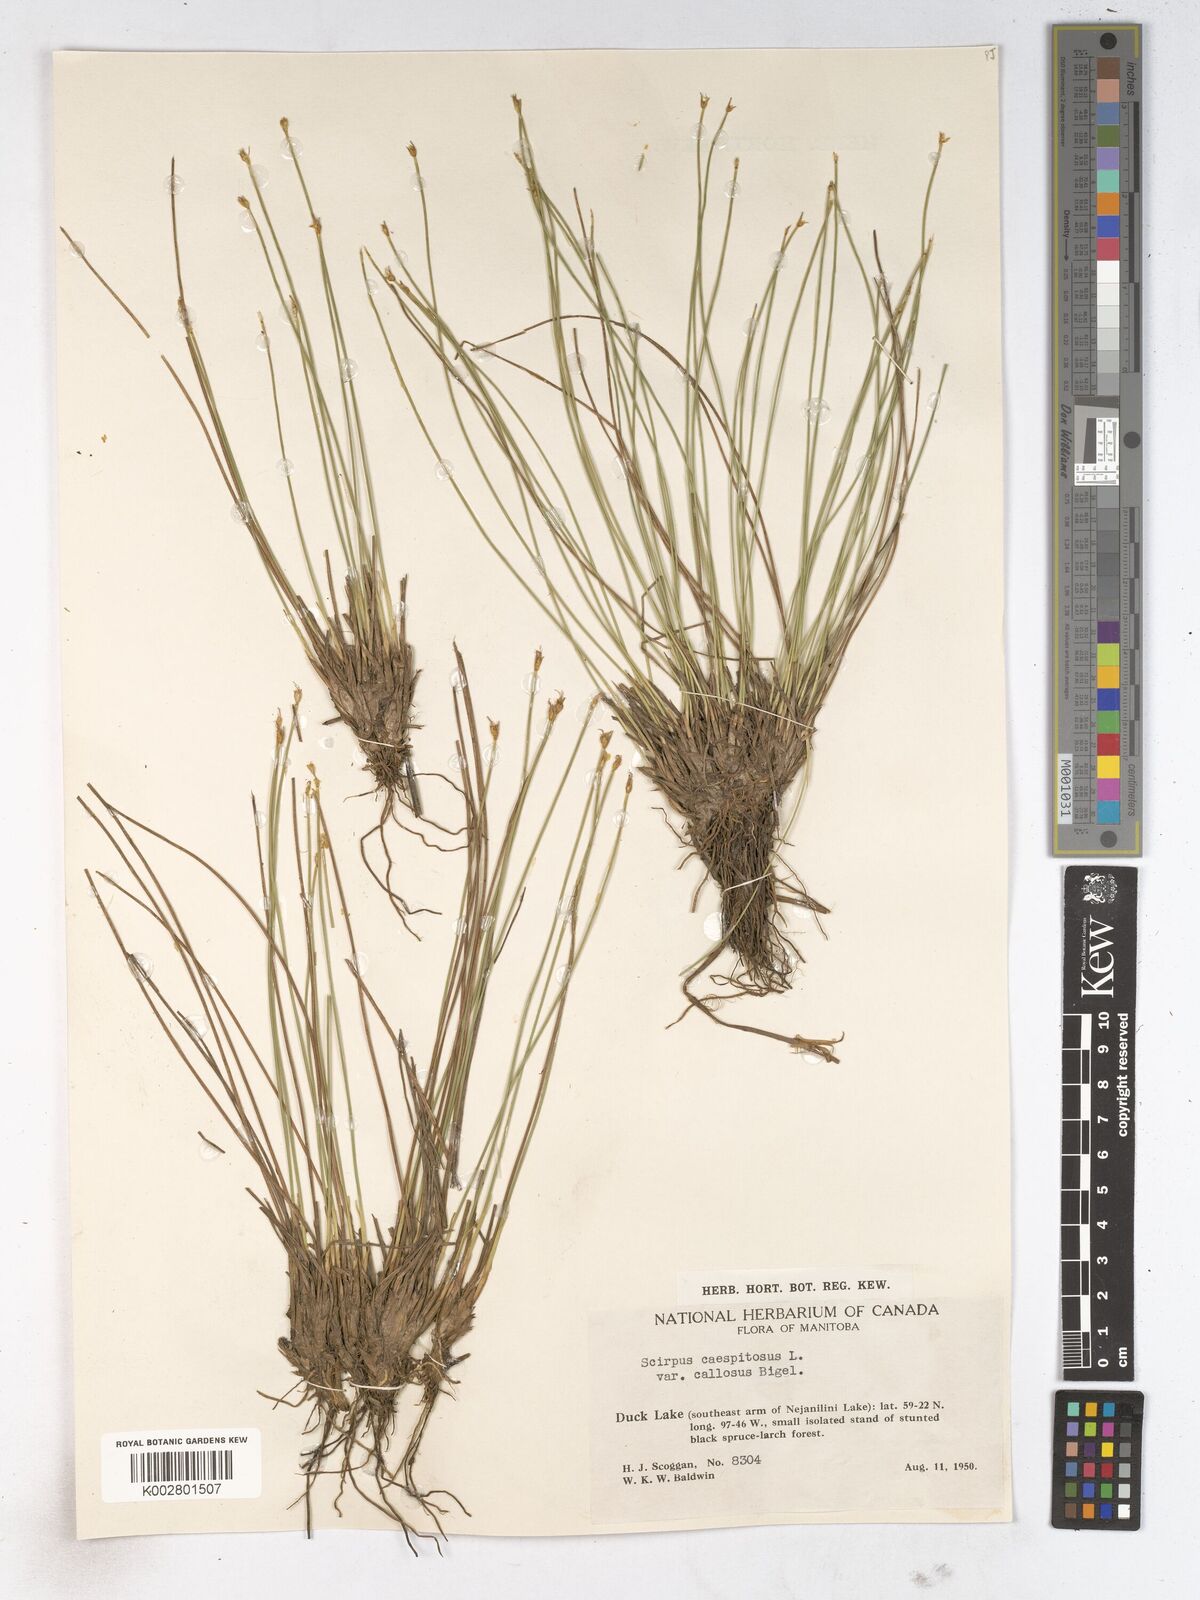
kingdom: Plantae
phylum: Tracheophyta
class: Liliopsida
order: Poales
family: Cyperaceae
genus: Trichophorum
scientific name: Trichophorum cespitosum
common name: Cespitose bulrush
